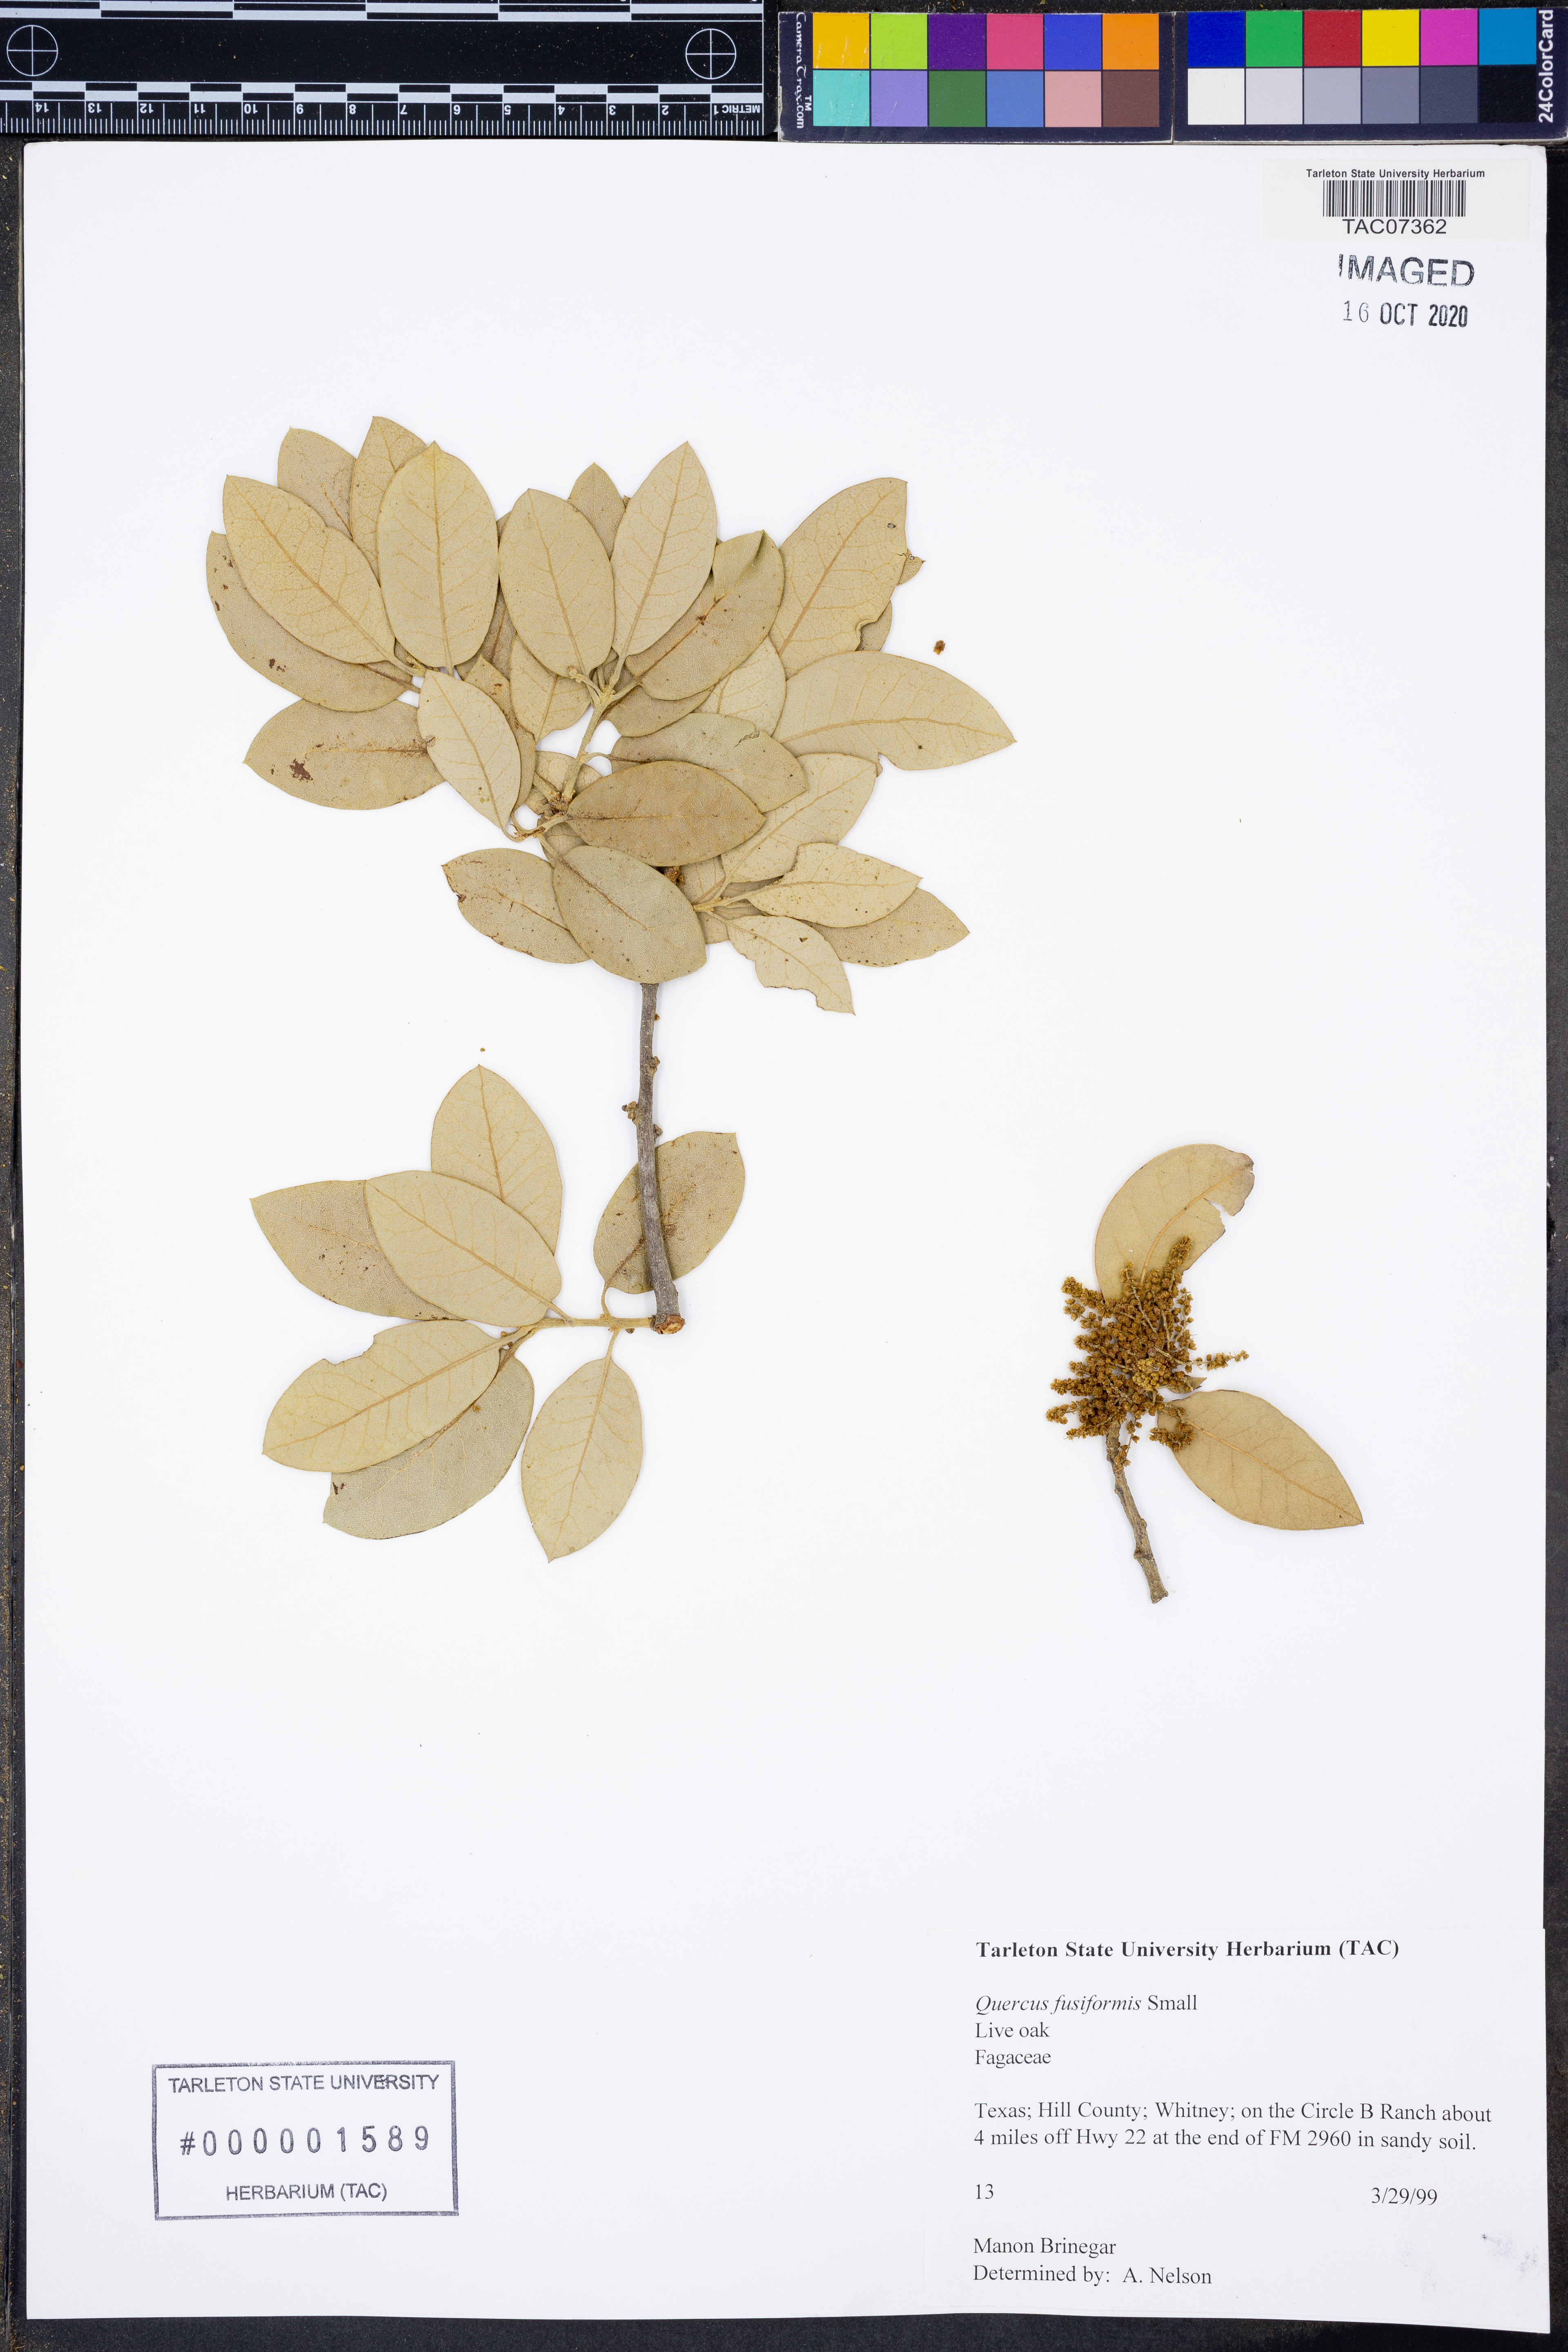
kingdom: Plantae
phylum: Tracheophyta
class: Magnoliopsida
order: Fagales
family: Fagaceae
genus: Quercus
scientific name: Quercus fusiformis
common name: Texas live oak
